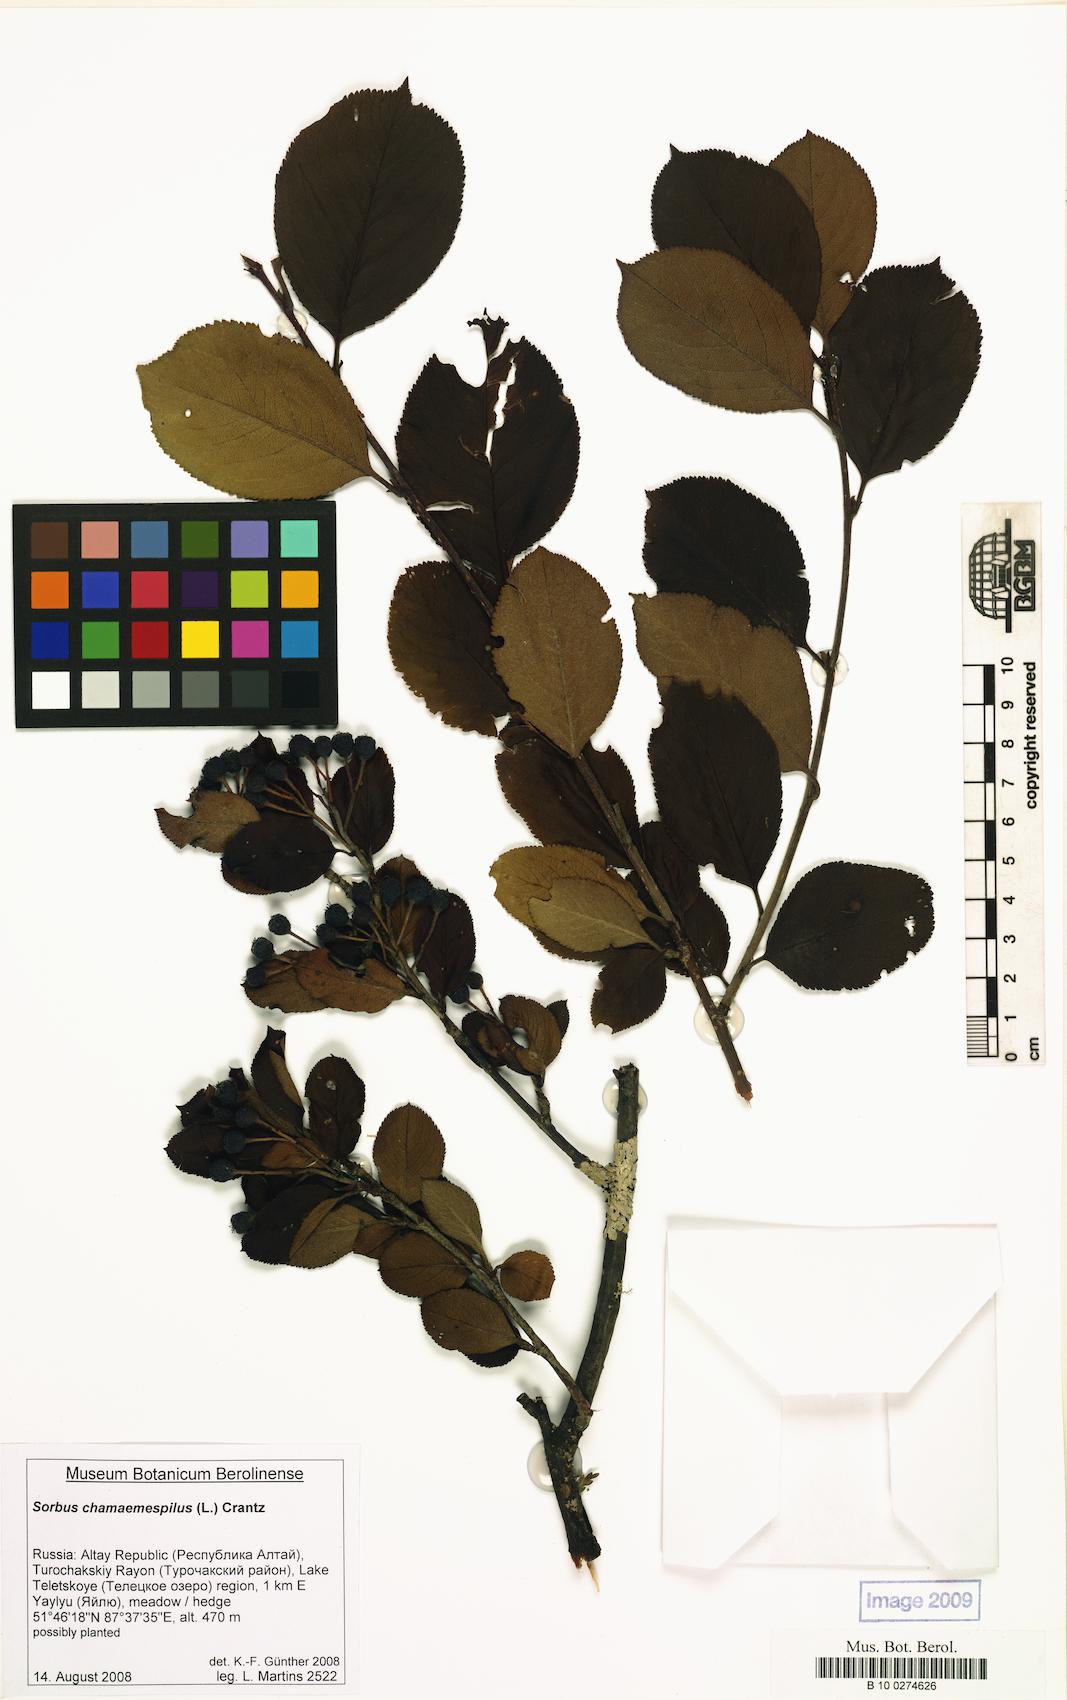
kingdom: Plantae
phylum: Tracheophyta
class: Magnoliopsida
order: Rosales
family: Rosaceae
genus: Sorbaronia
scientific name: Sorbaronia arsenii
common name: Arsène's mountain-ash
